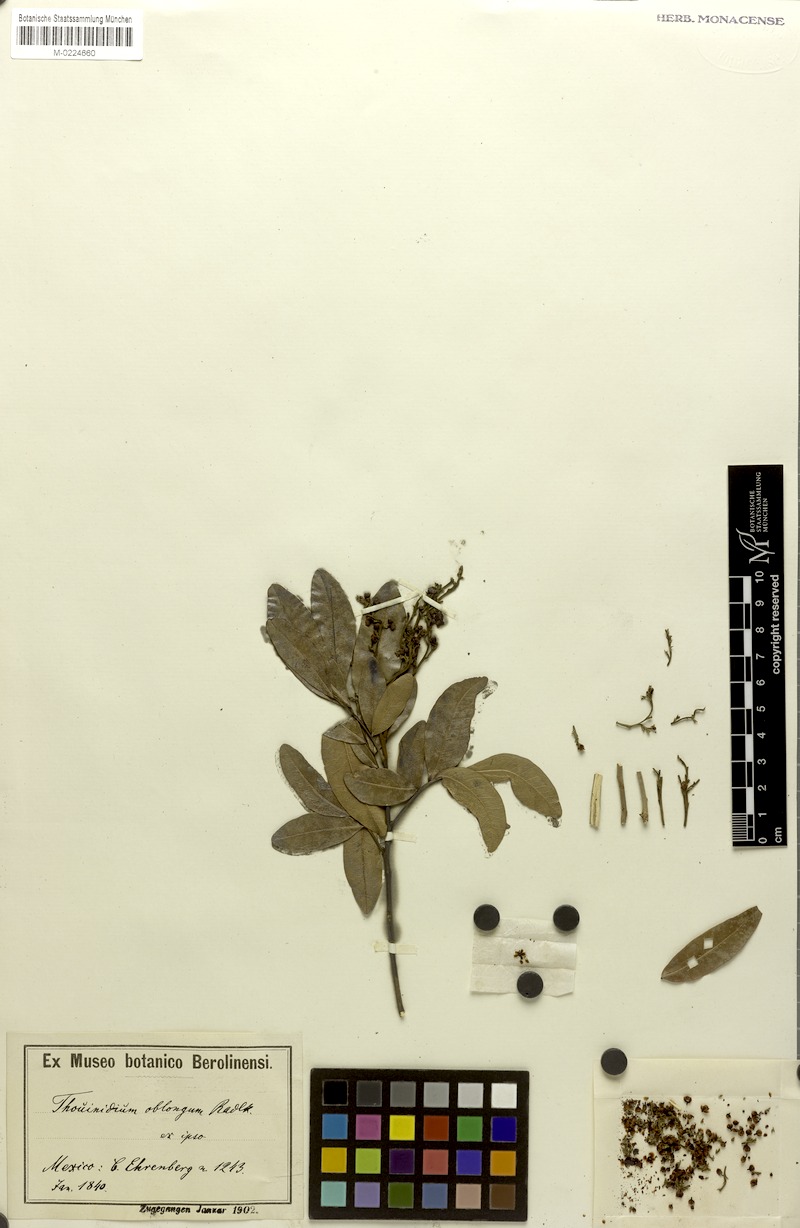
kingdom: Plantae
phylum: Tracheophyta
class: Magnoliopsida
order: Sapindales
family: Sapindaceae
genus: Thouinidium
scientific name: Thouinidium oblongum
